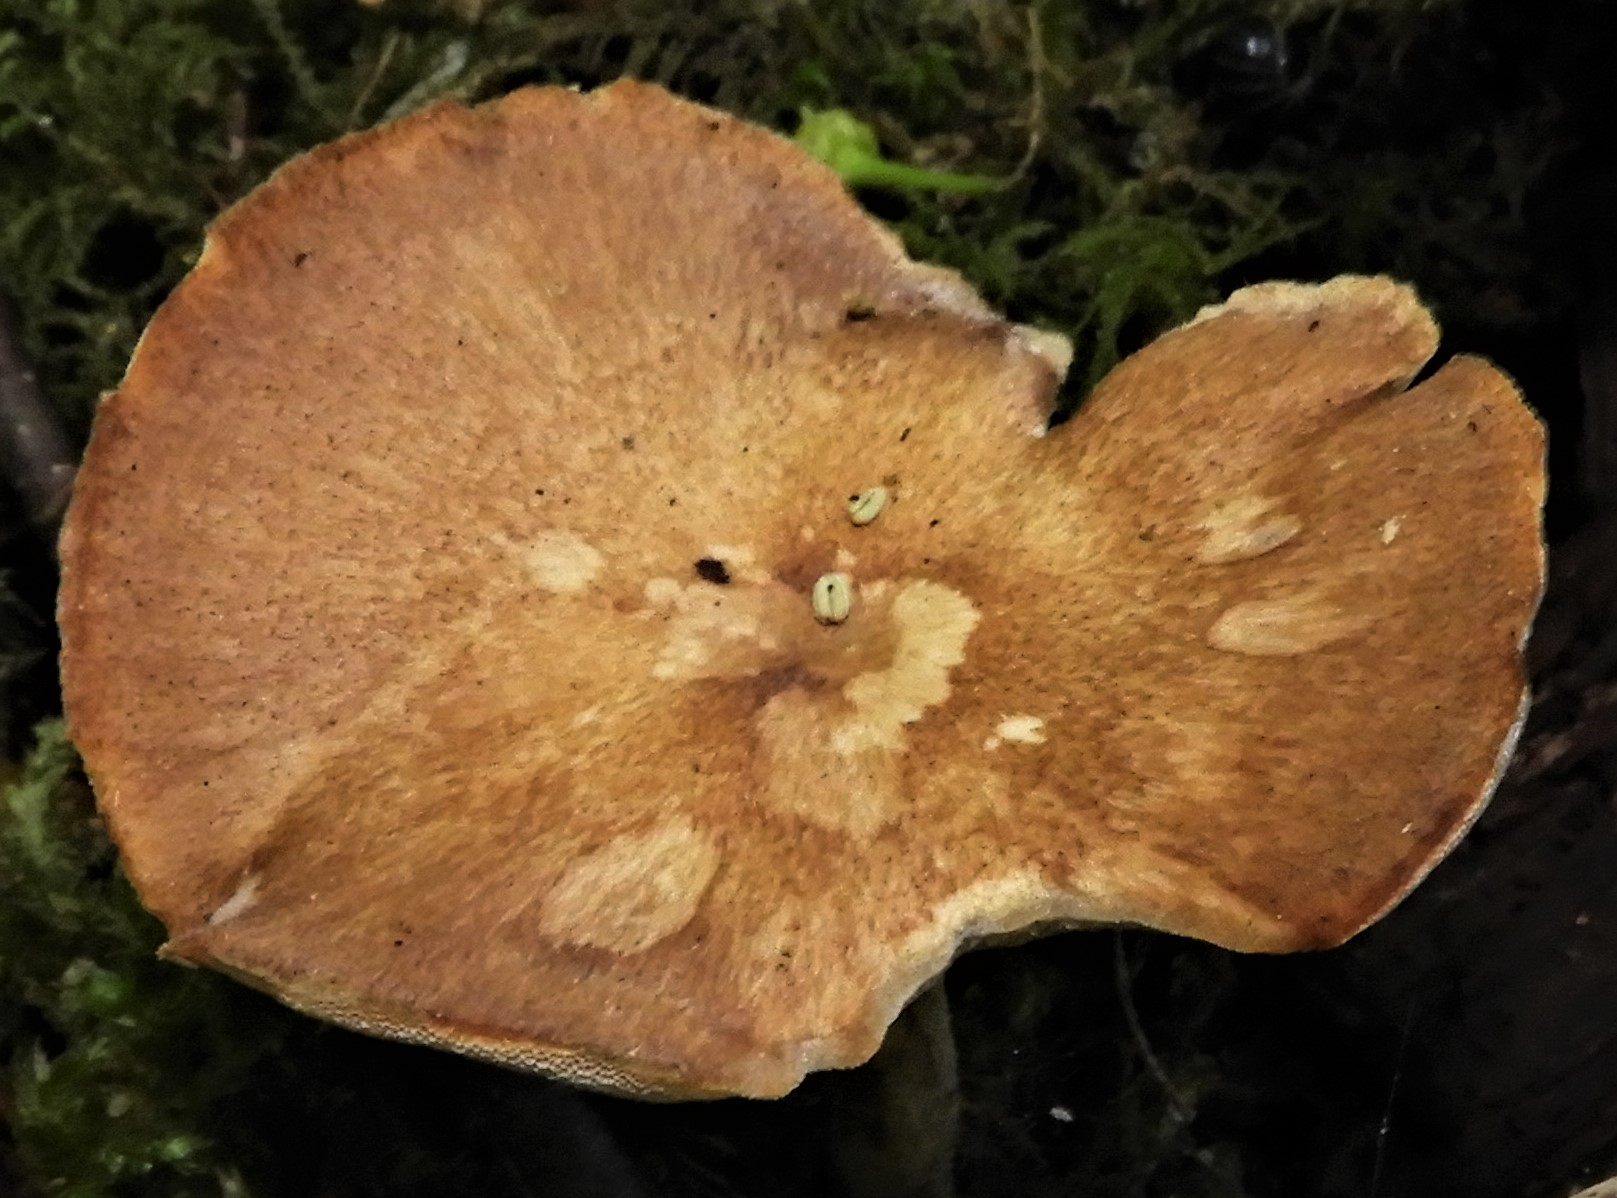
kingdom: Fungi
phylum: Basidiomycota
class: Agaricomycetes
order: Polyporales
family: Polyporaceae
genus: Lentinus
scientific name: Lentinus substrictus
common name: forårs-stilkporesvamp
